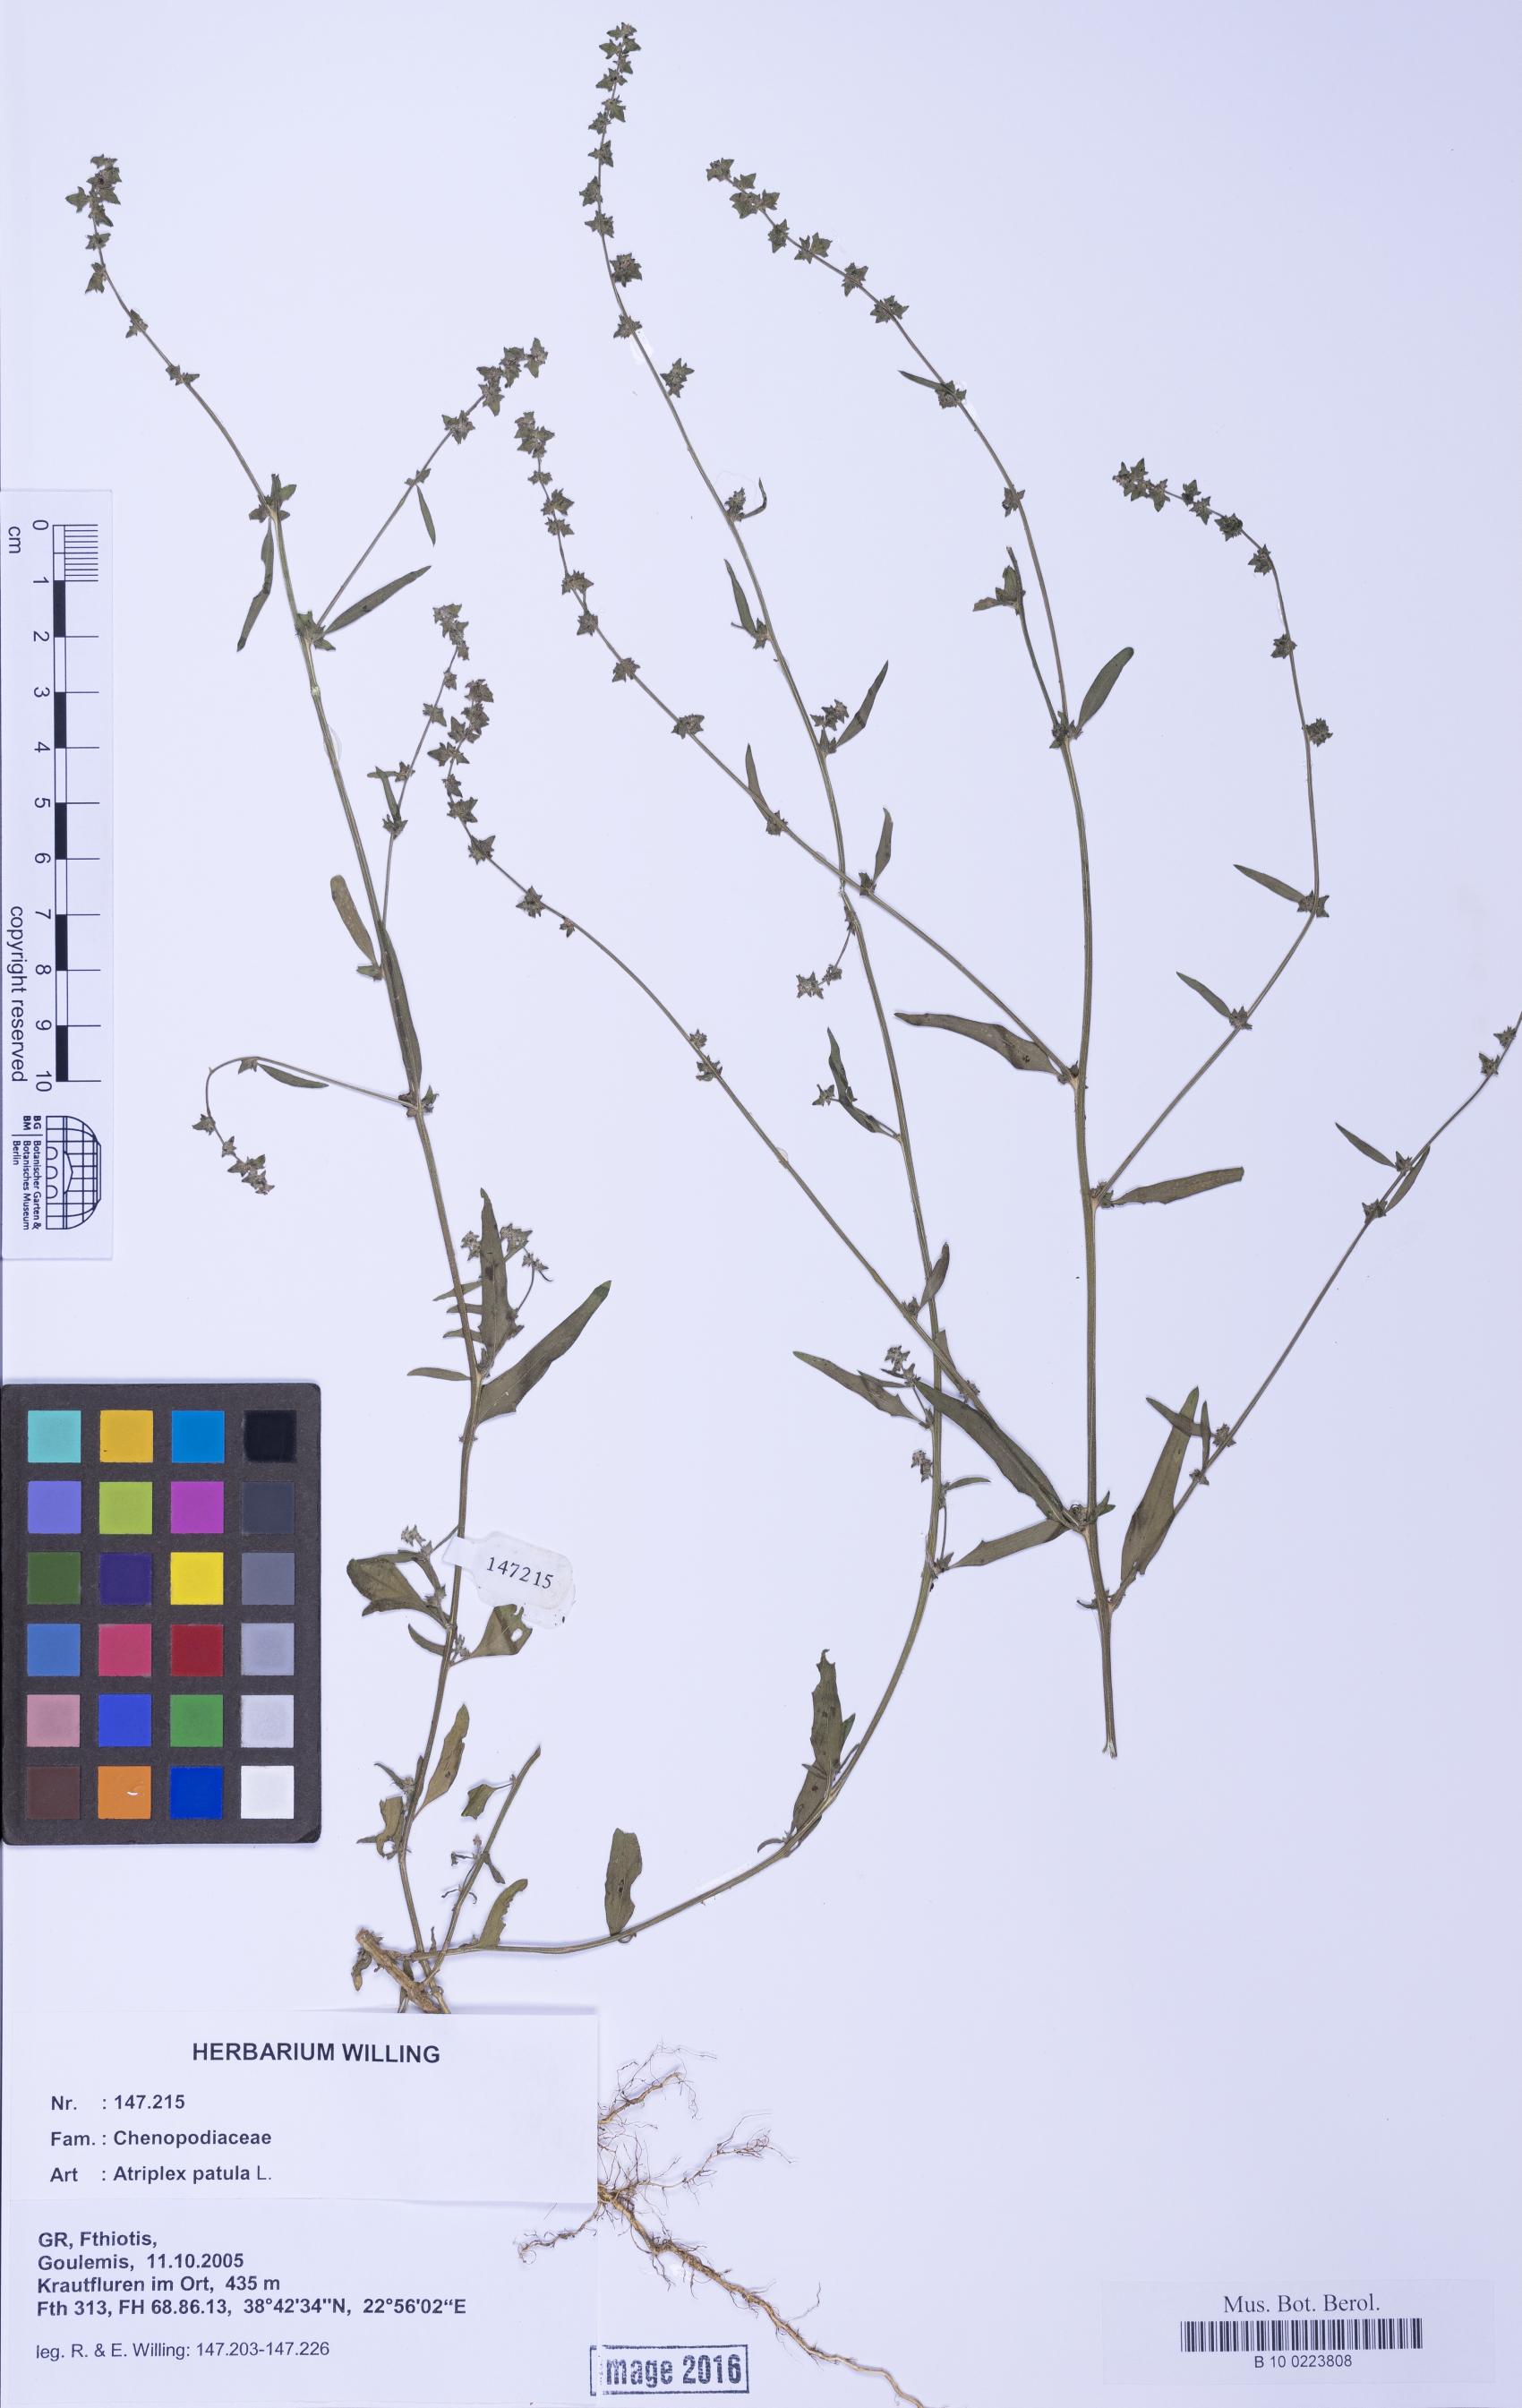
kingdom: Plantae
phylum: Tracheophyta
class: Magnoliopsida
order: Caryophyllales
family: Amaranthaceae
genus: Atriplex
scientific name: Atriplex patula
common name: Common orache
